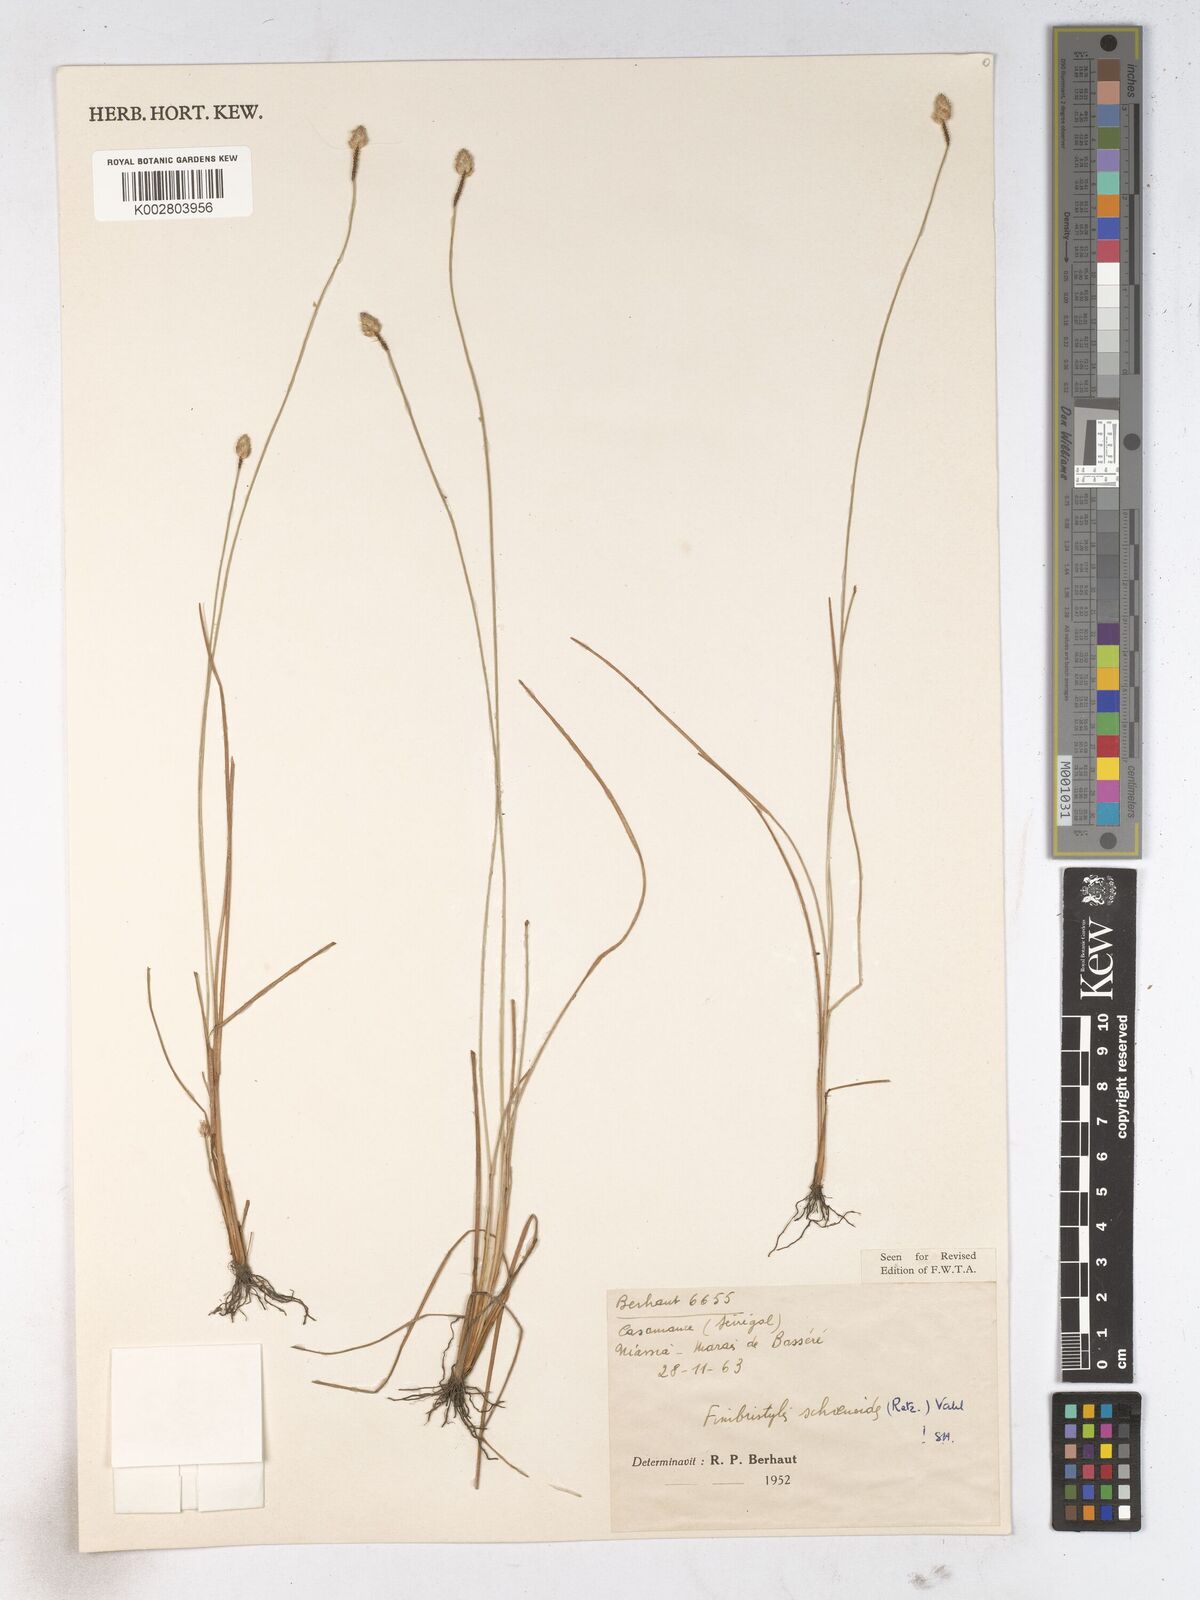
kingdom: Plantae
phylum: Tracheophyta
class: Liliopsida
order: Poales
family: Cyperaceae
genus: Fimbristylis
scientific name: Fimbristylis schoenoides
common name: Ditch fimbry
